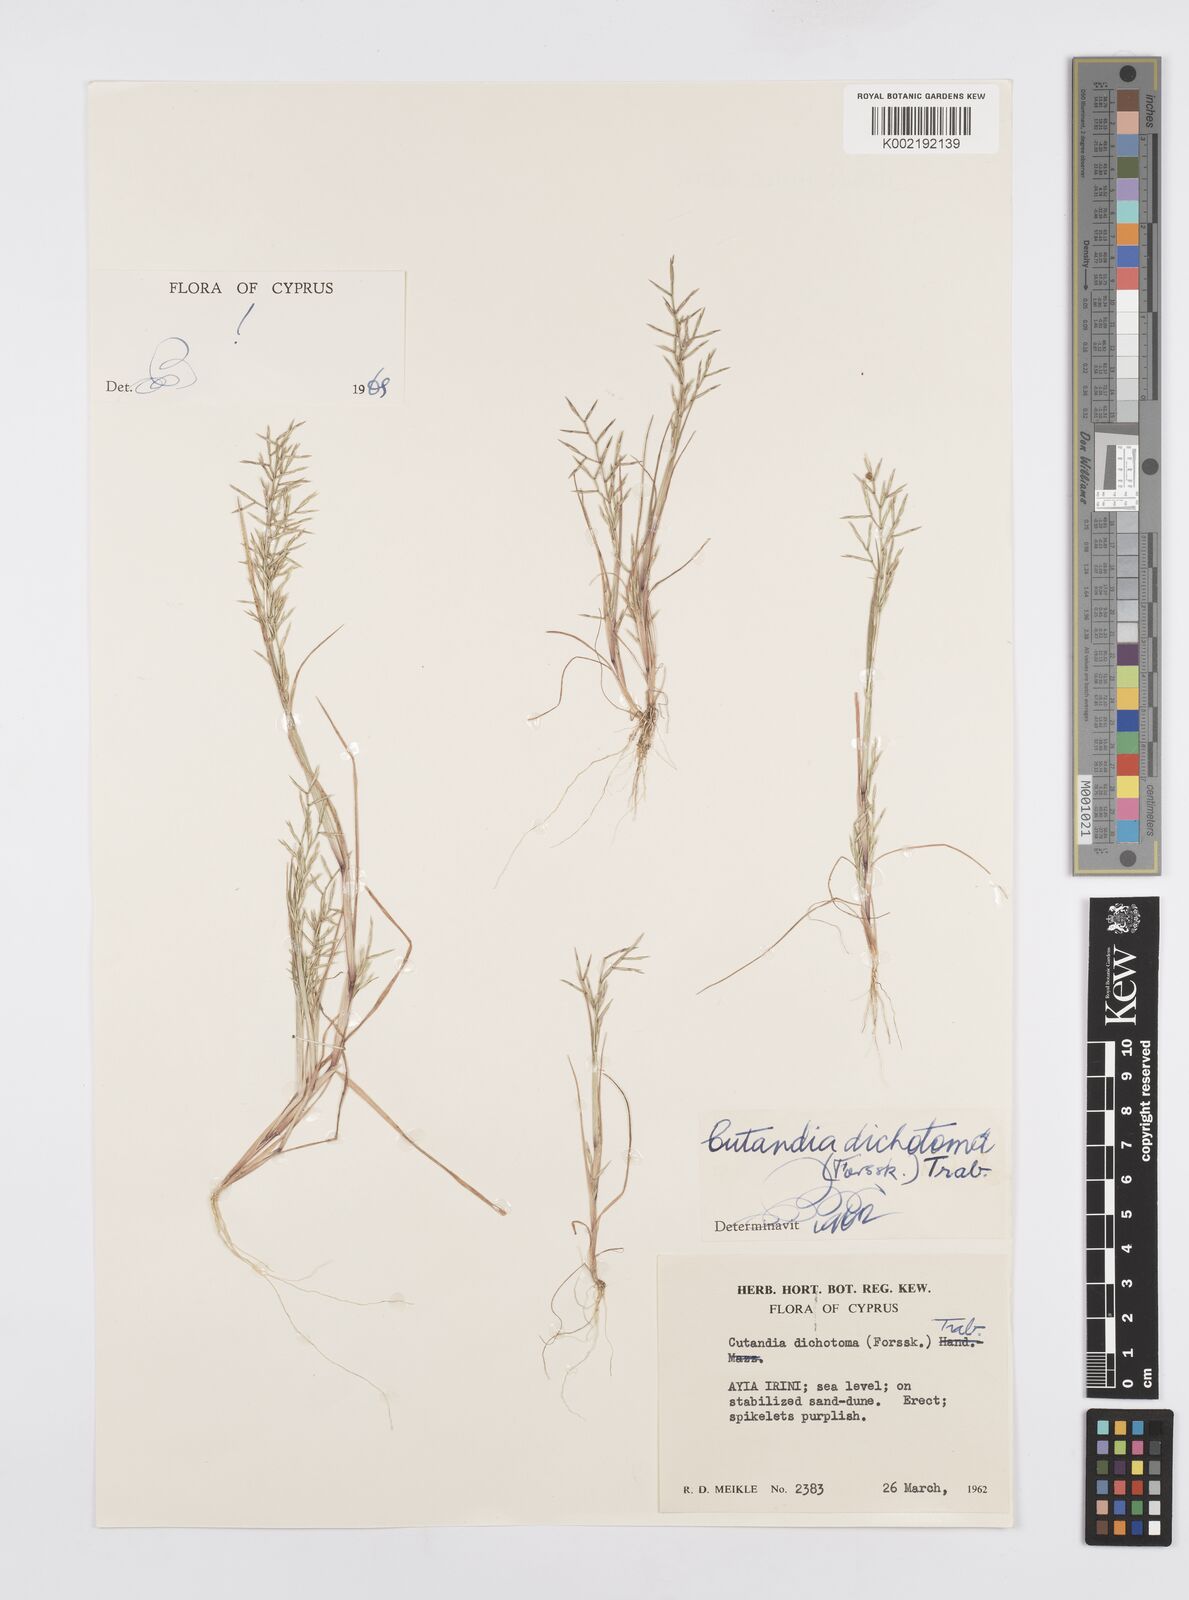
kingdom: Plantae
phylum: Tracheophyta
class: Liliopsida
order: Poales
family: Poaceae
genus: Cutandia
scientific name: Cutandia dichotoma
